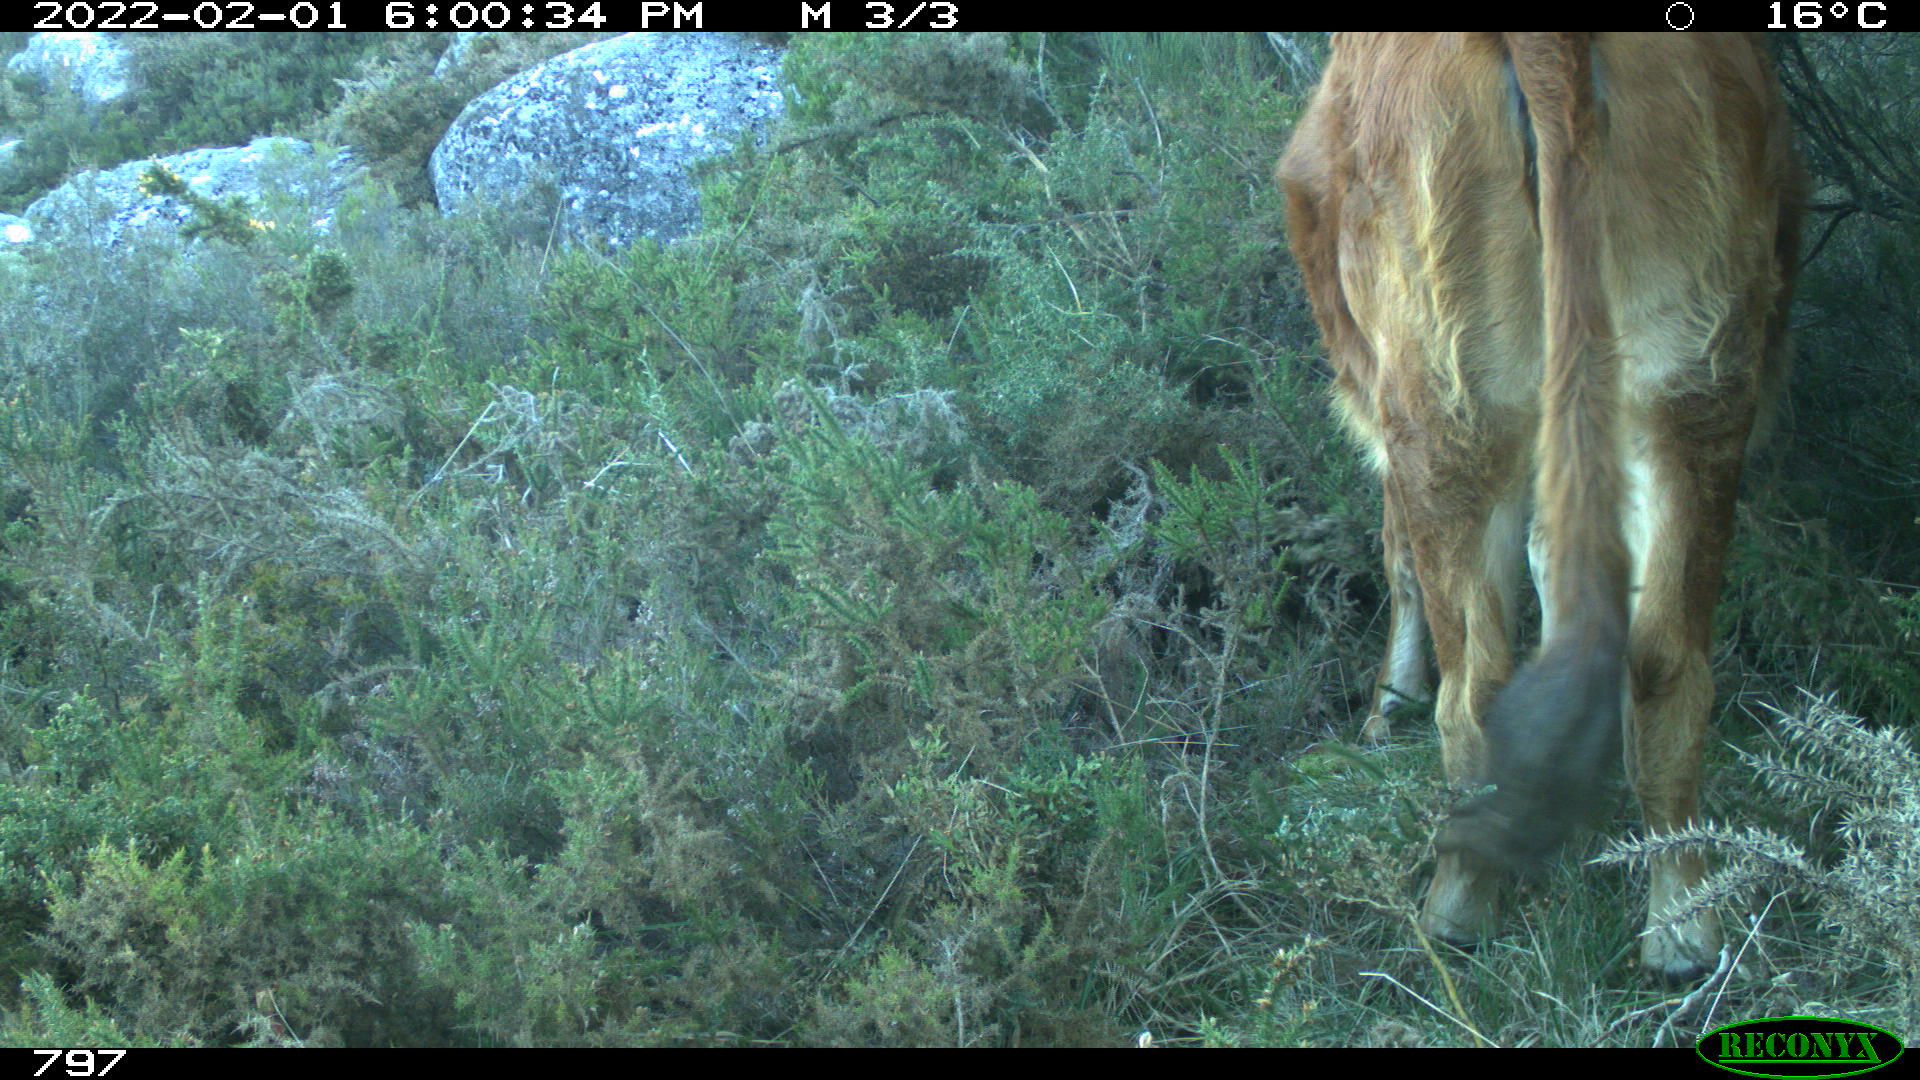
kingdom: Animalia
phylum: Chordata
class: Mammalia
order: Artiodactyla
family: Bovidae
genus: Bos
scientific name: Bos taurus
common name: Domesticated cattle
